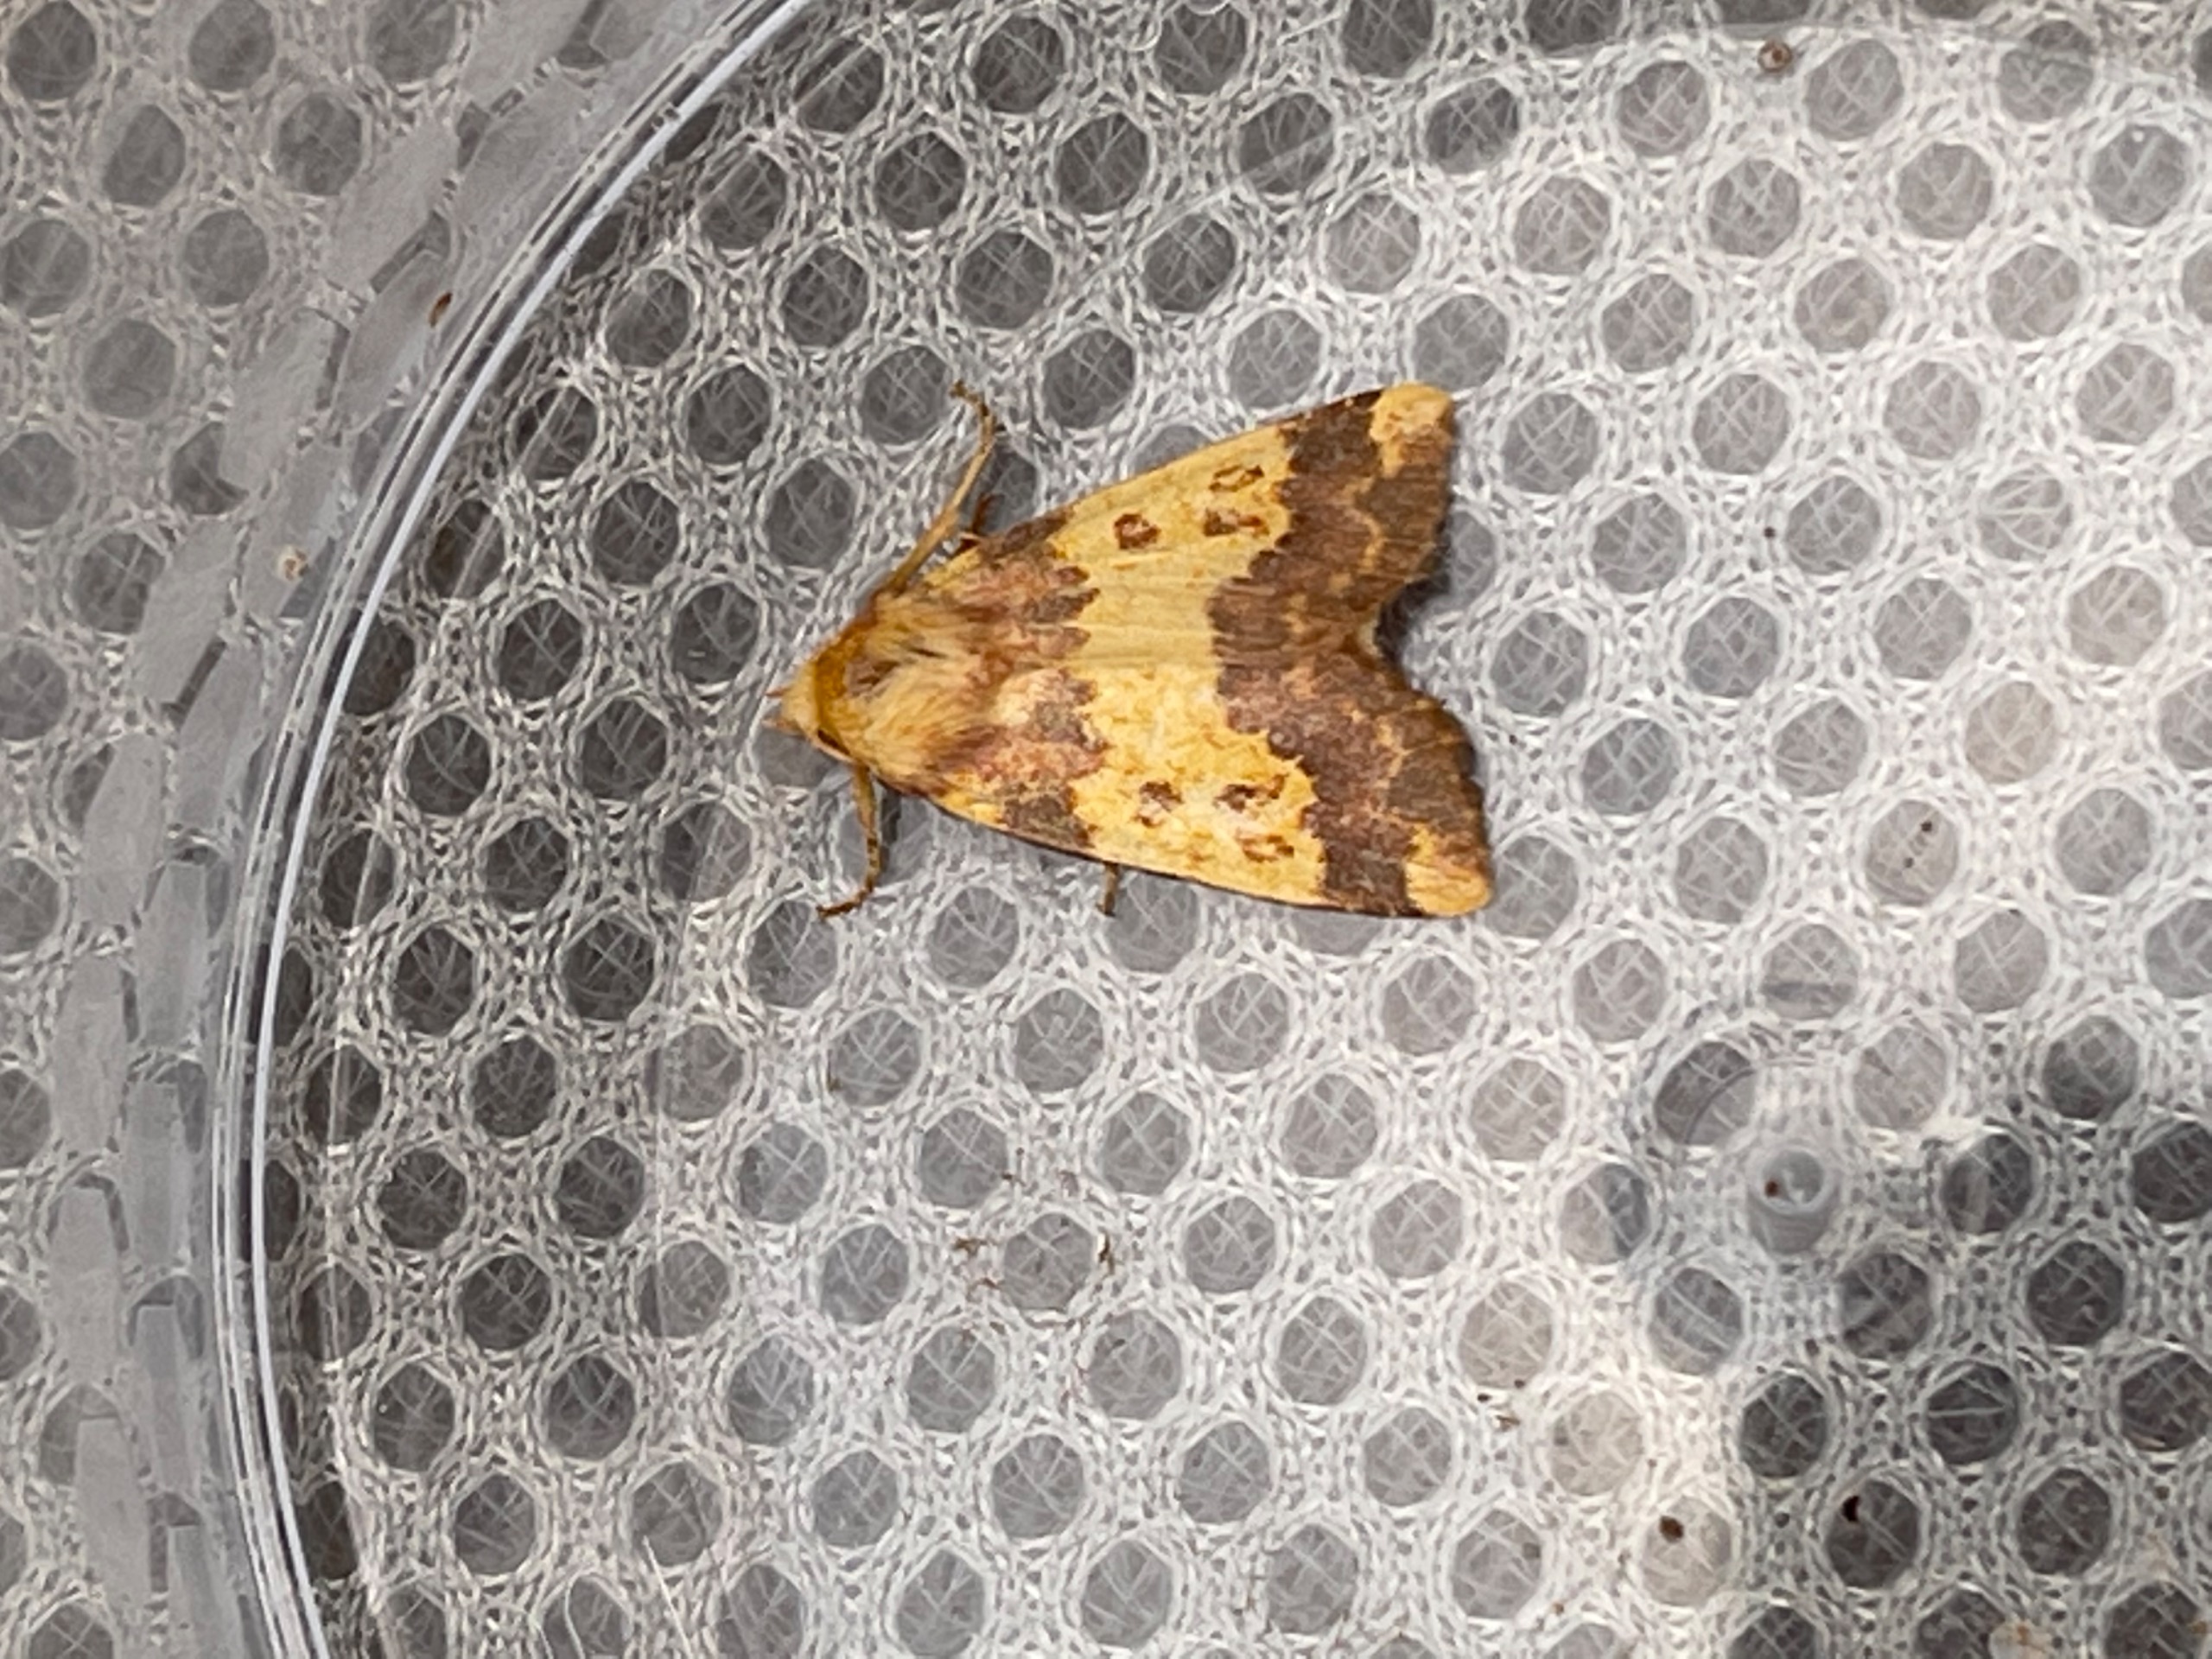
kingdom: Animalia
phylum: Arthropoda
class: Insecta
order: Lepidoptera
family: Noctuidae
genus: Tiliacea
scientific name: Tiliacea aurago
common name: Guldugle
